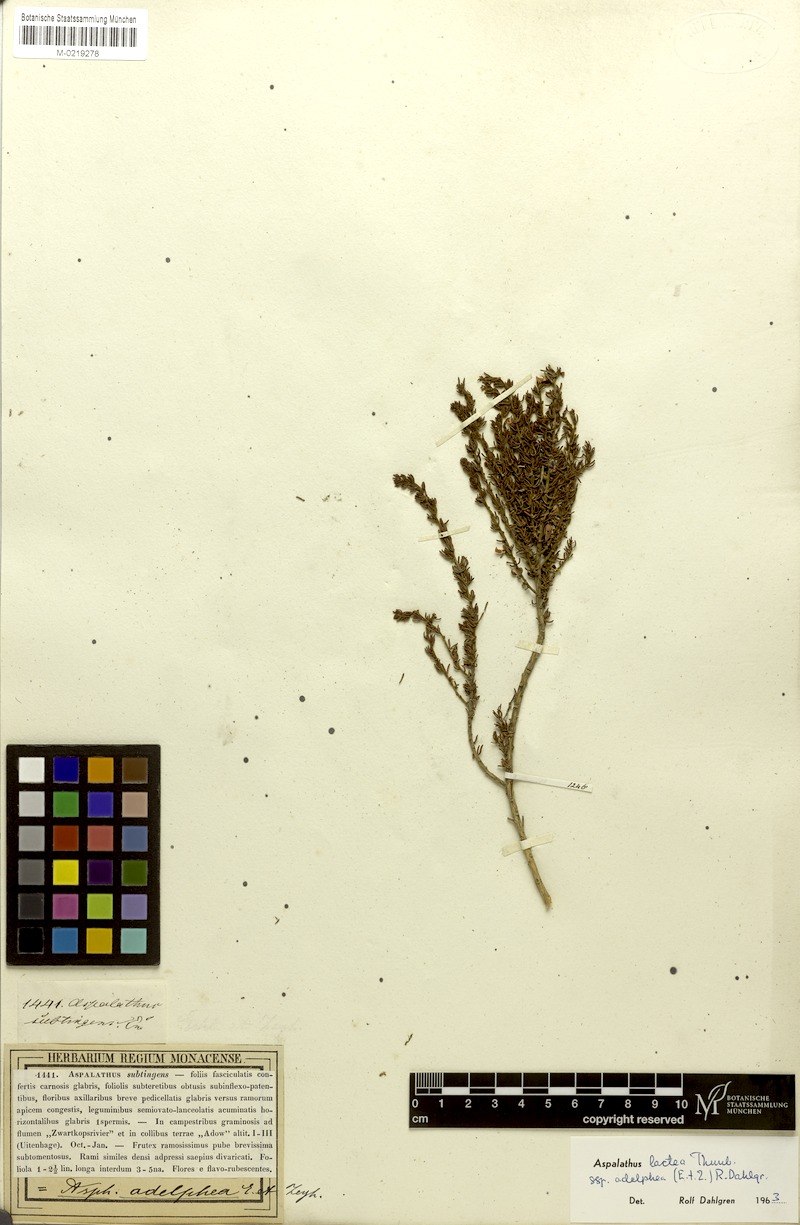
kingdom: Plantae
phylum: Tracheophyta
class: Magnoliopsida
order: Fabales
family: Fabaceae
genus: Aspalathus
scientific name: Aspalathus lactea
